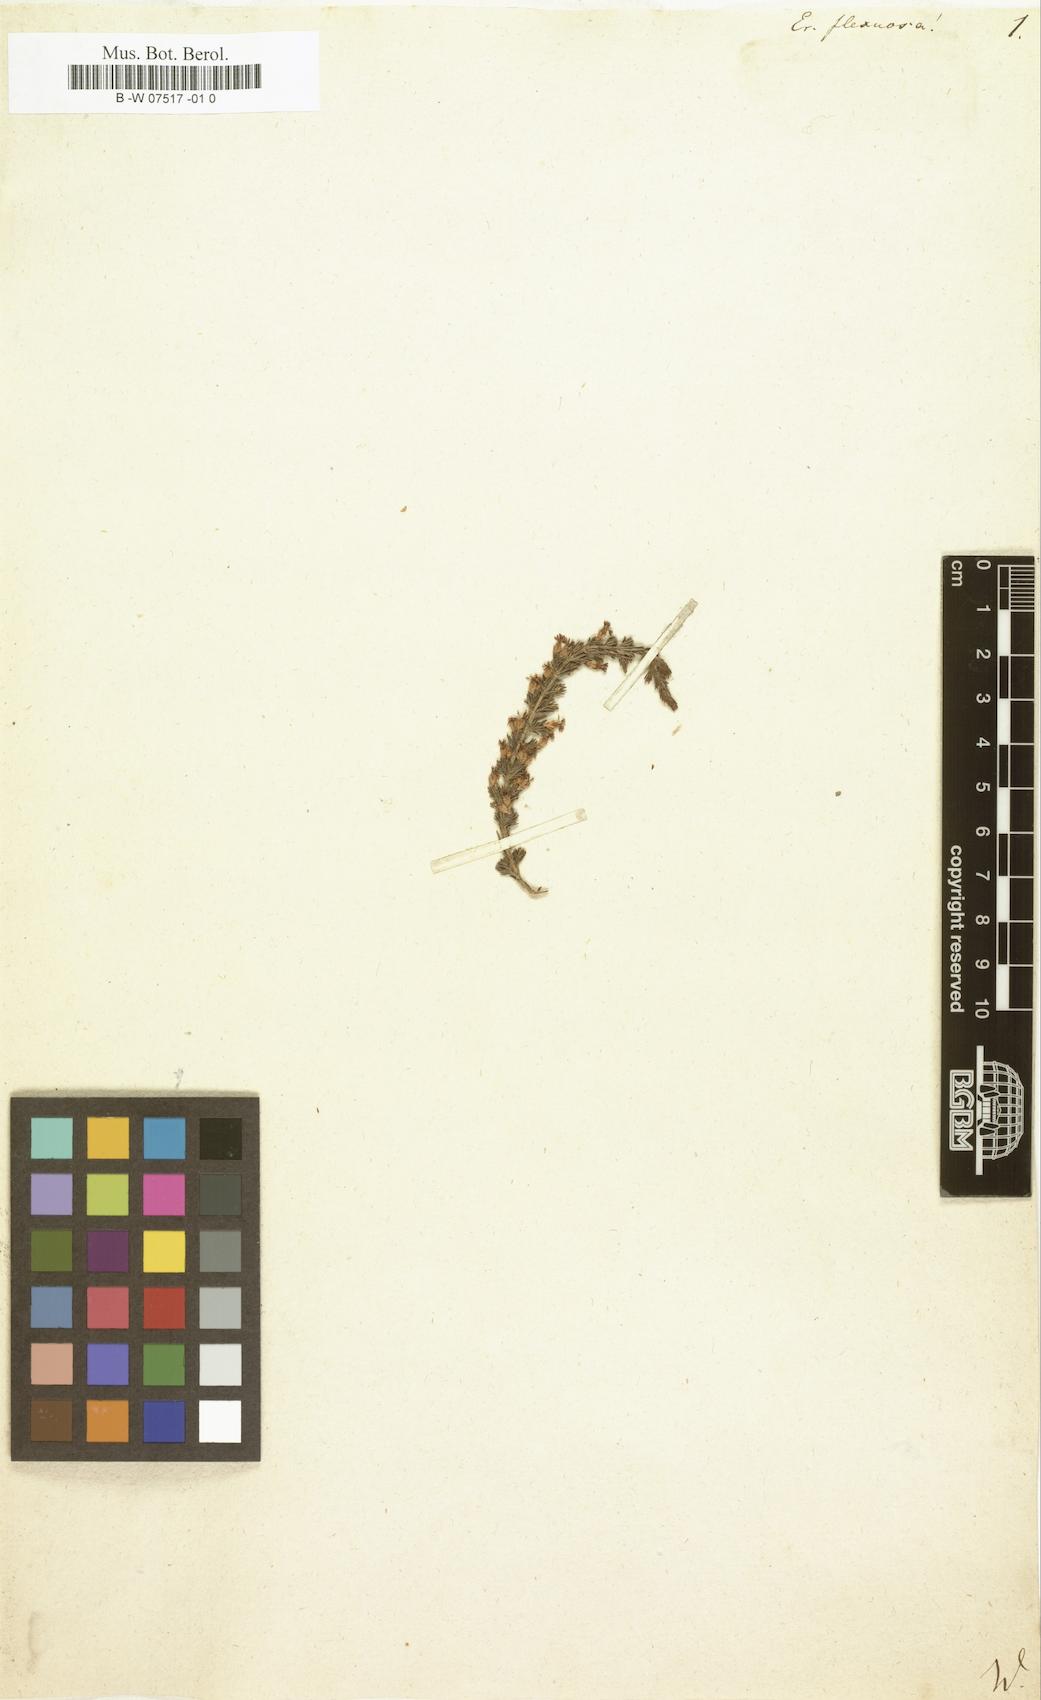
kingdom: Plantae
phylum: Tracheophyta
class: Magnoliopsida
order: Ericales
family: Ericaceae
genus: Erica
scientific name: Erica imbricata
